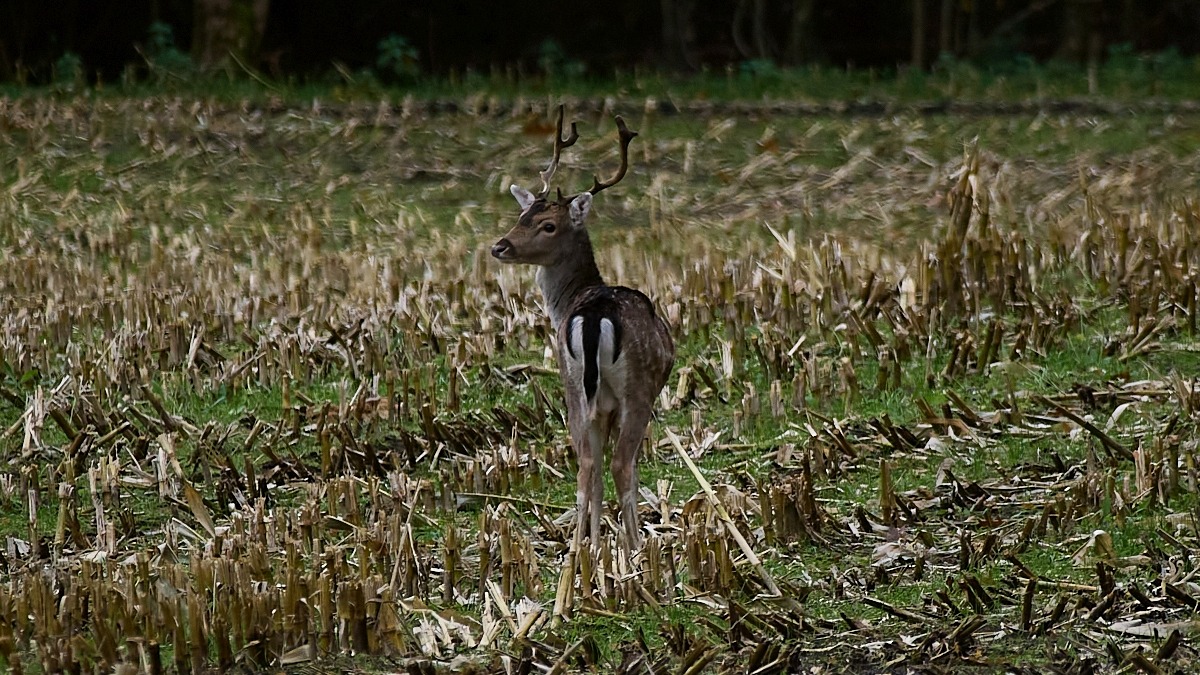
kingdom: Animalia
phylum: Chordata
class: Mammalia
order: Artiodactyla
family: Cervidae
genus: Dama
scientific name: Dama dama
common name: Dådyr
